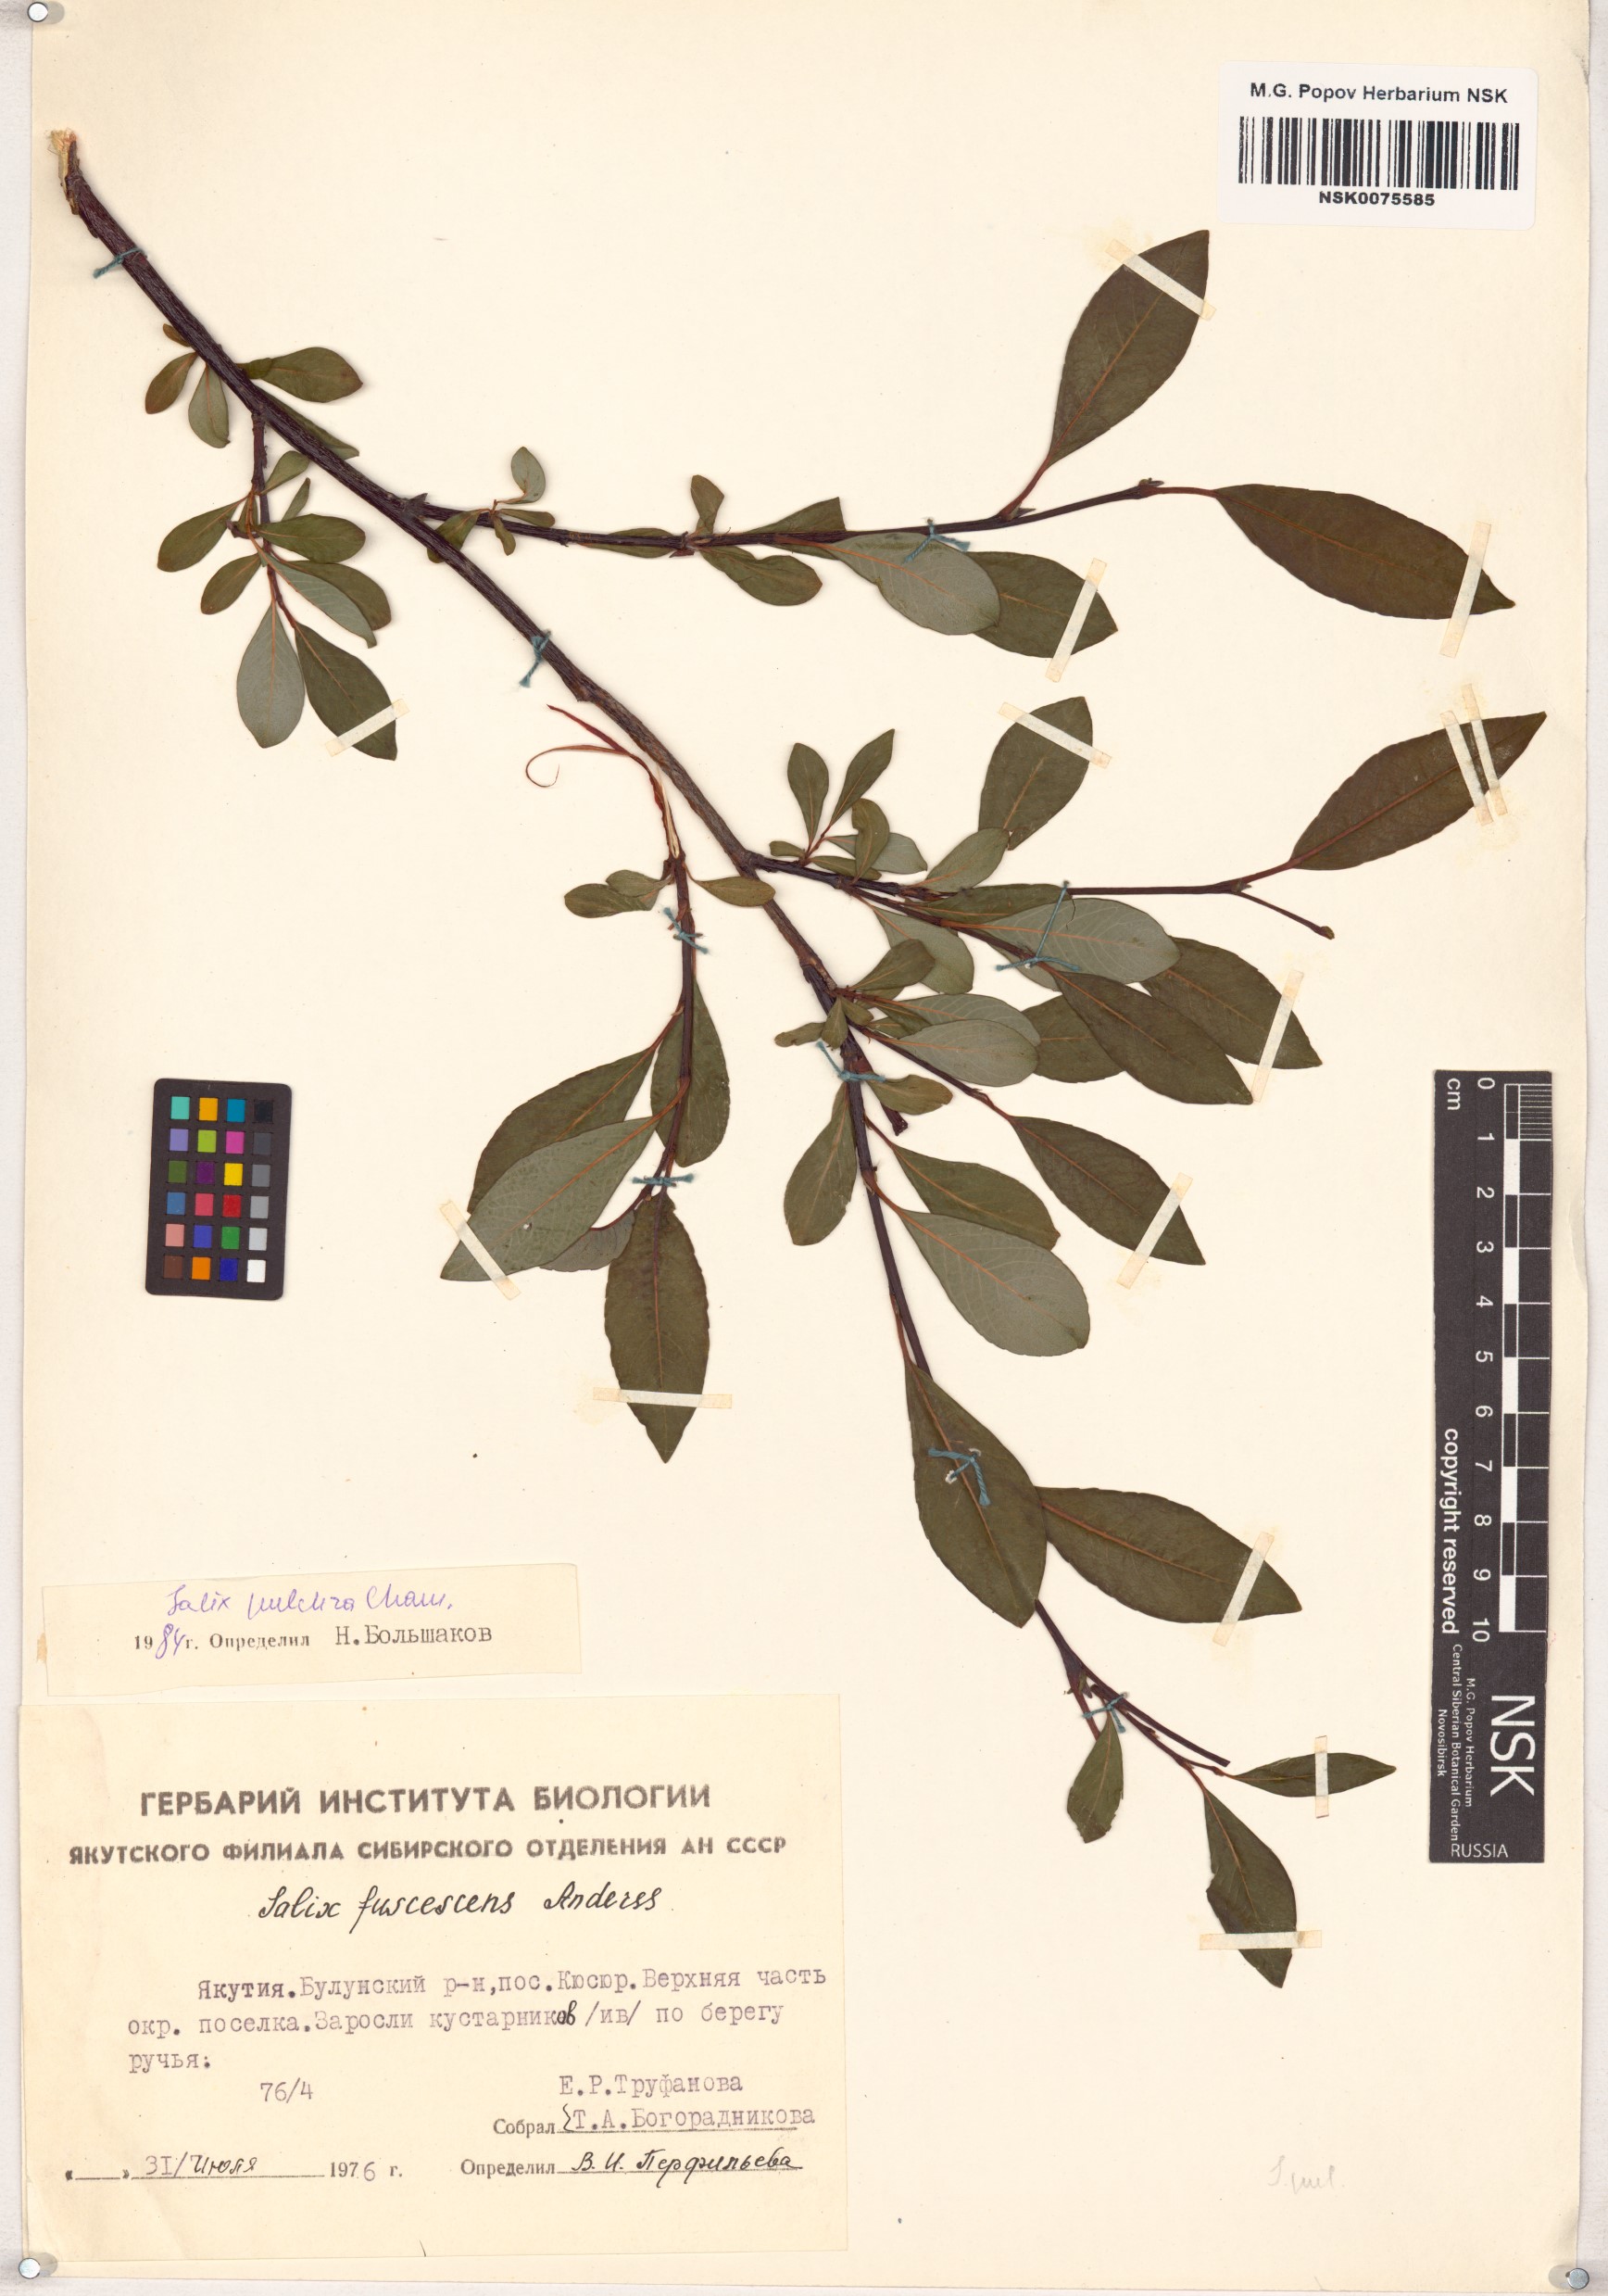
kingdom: Plantae
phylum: Tracheophyta
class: Magnoliopsida
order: Malpighiales
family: Salicaceae
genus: Salix
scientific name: Salix pulchra
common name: Diamond-leaved willow
